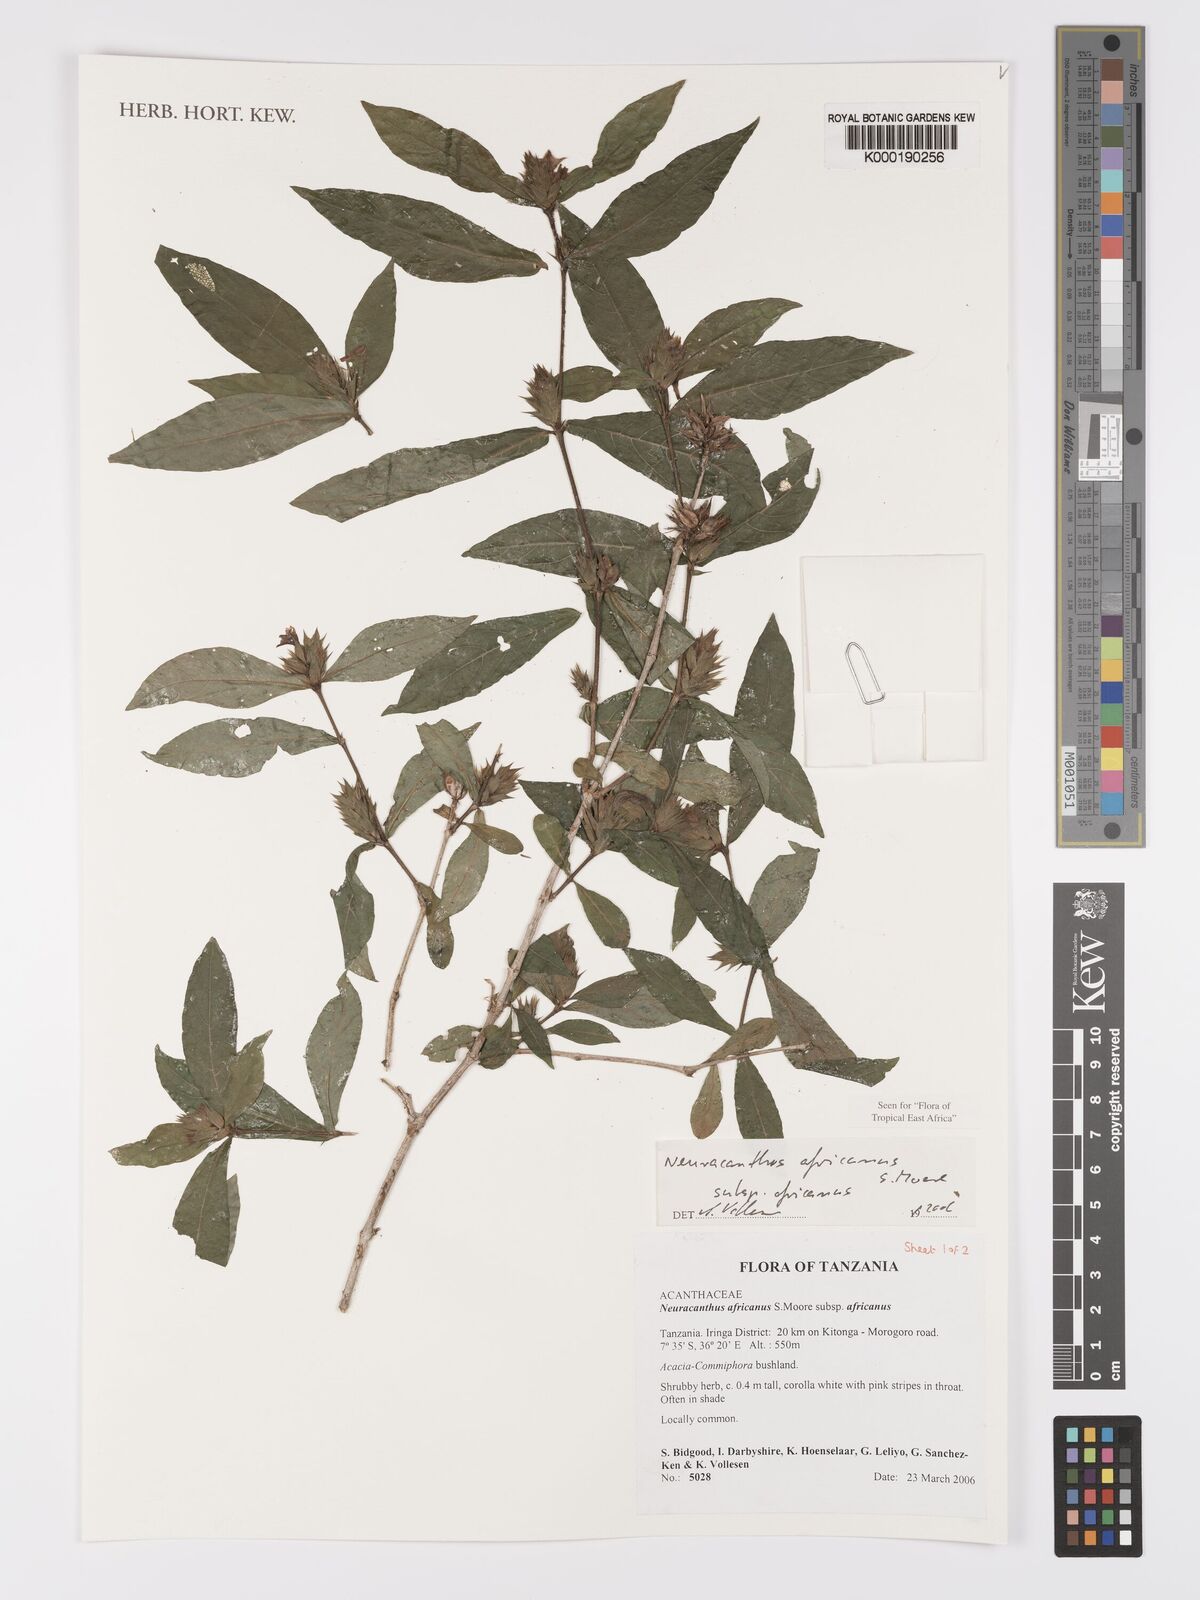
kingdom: Plantae
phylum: Tracheophyta
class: Magnoliopsida
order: Lamiales
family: Acanthaceae
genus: Neuracanthus
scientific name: Neuracanthus africanus
